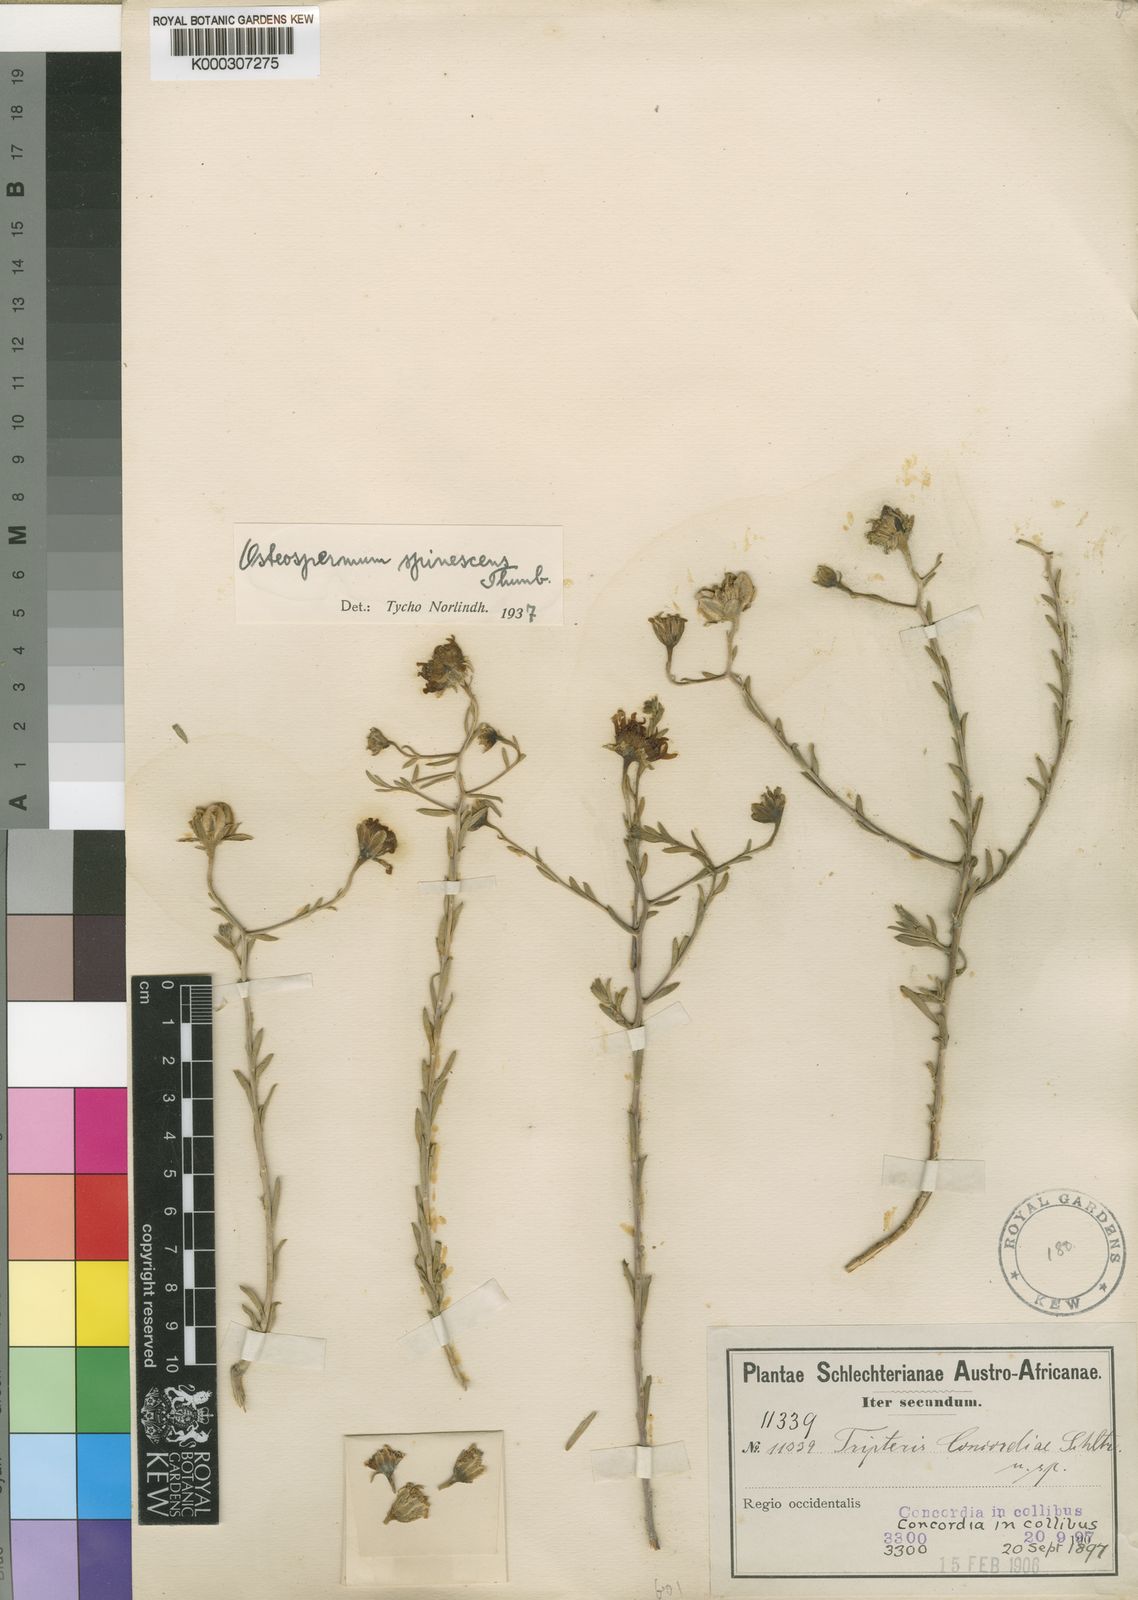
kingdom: Plantae
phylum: Tracheophyta
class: Magnoliopsida
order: Asterales
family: Asteraceae
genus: Osteospermum
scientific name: Osteospermum spinescens
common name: Sunflower
